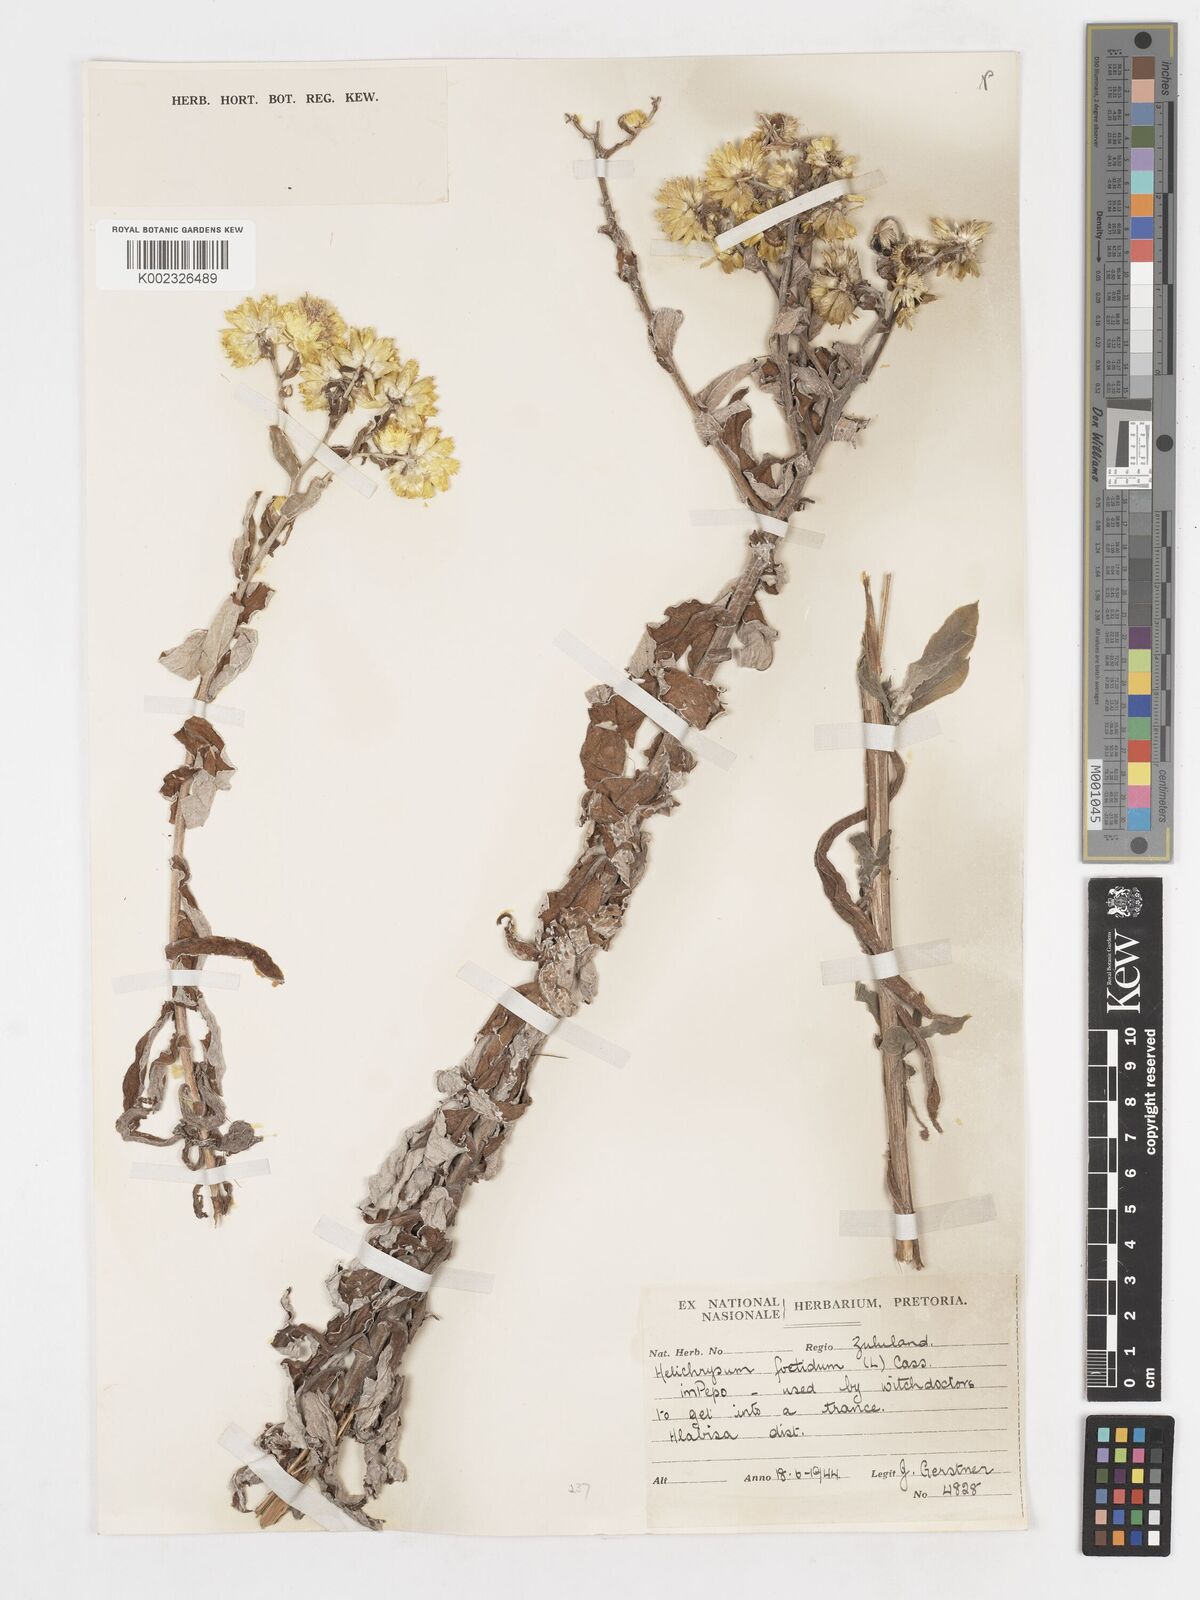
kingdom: Plantae
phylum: Tracheophyta
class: Magnoliopsida
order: Asterales
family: Asteraceae
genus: Helichrysum
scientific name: Helichrysum foetidum
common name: Stinking everlasting
